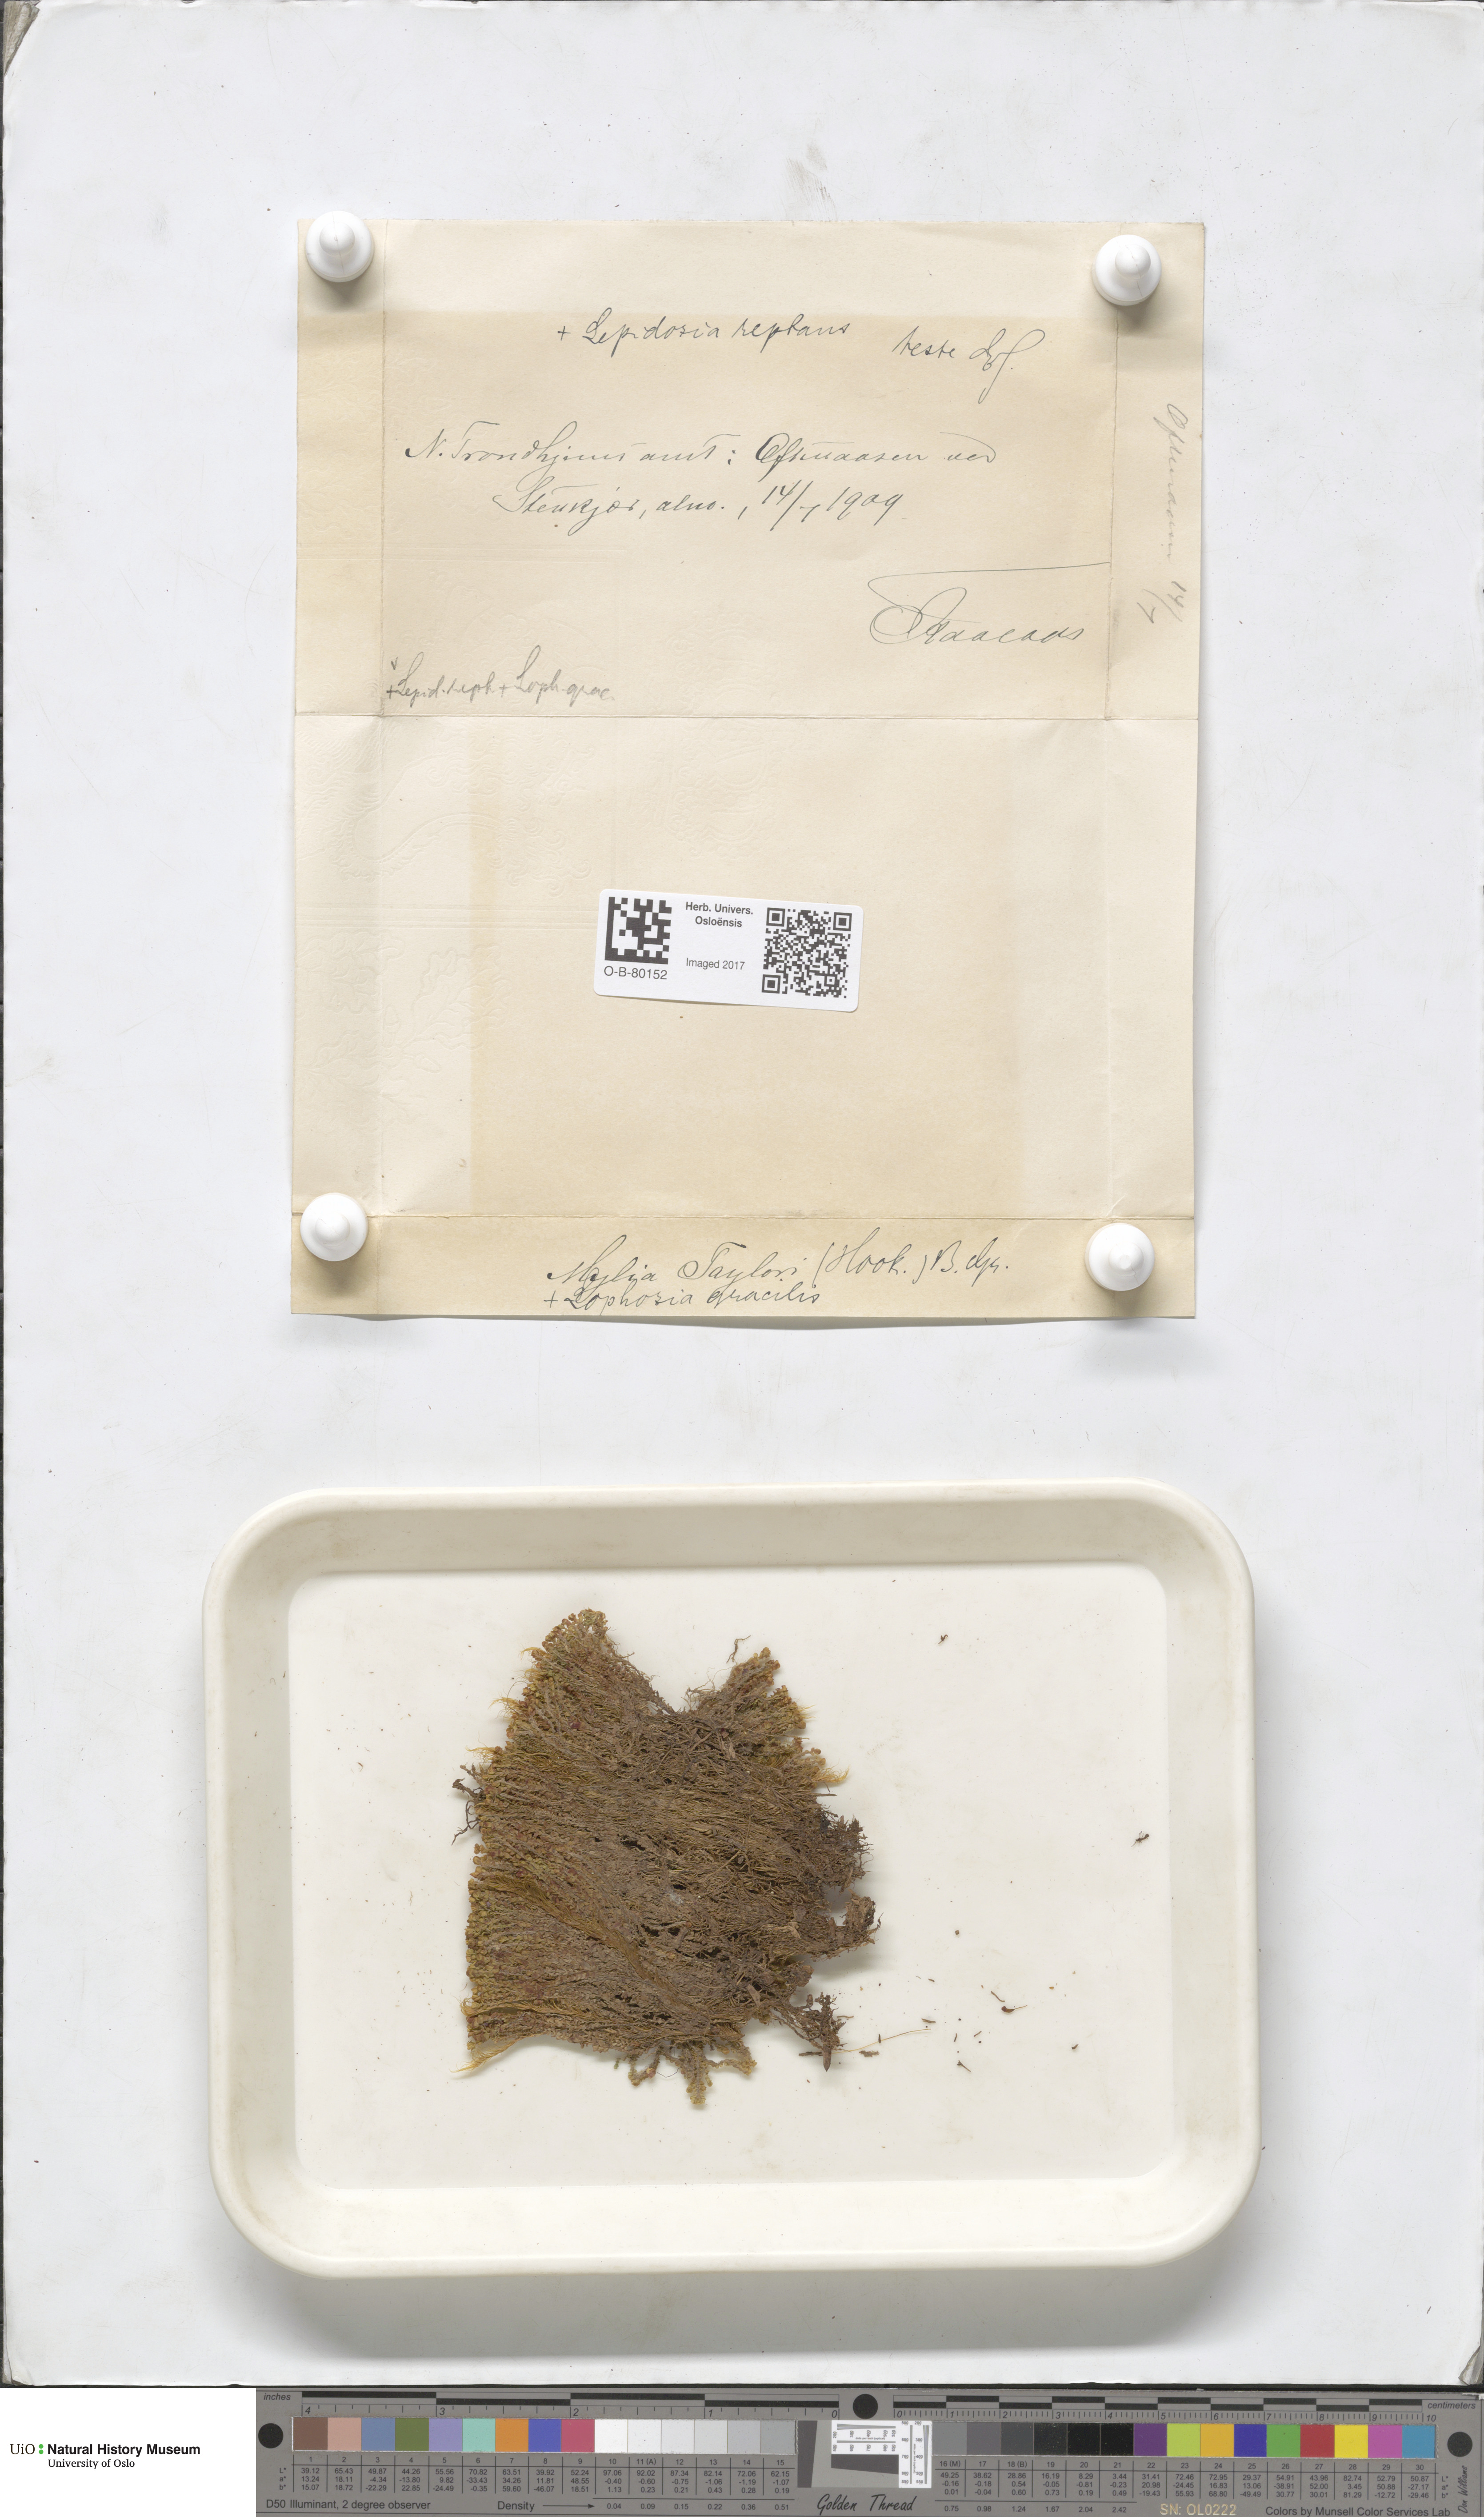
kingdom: Plantae
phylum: Marchantiophyta
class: Jungermanniopsida
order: Jungermanniales
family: Myliaceae
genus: Mylia
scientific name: Mylia taylorii
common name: Taylor s flapwort
